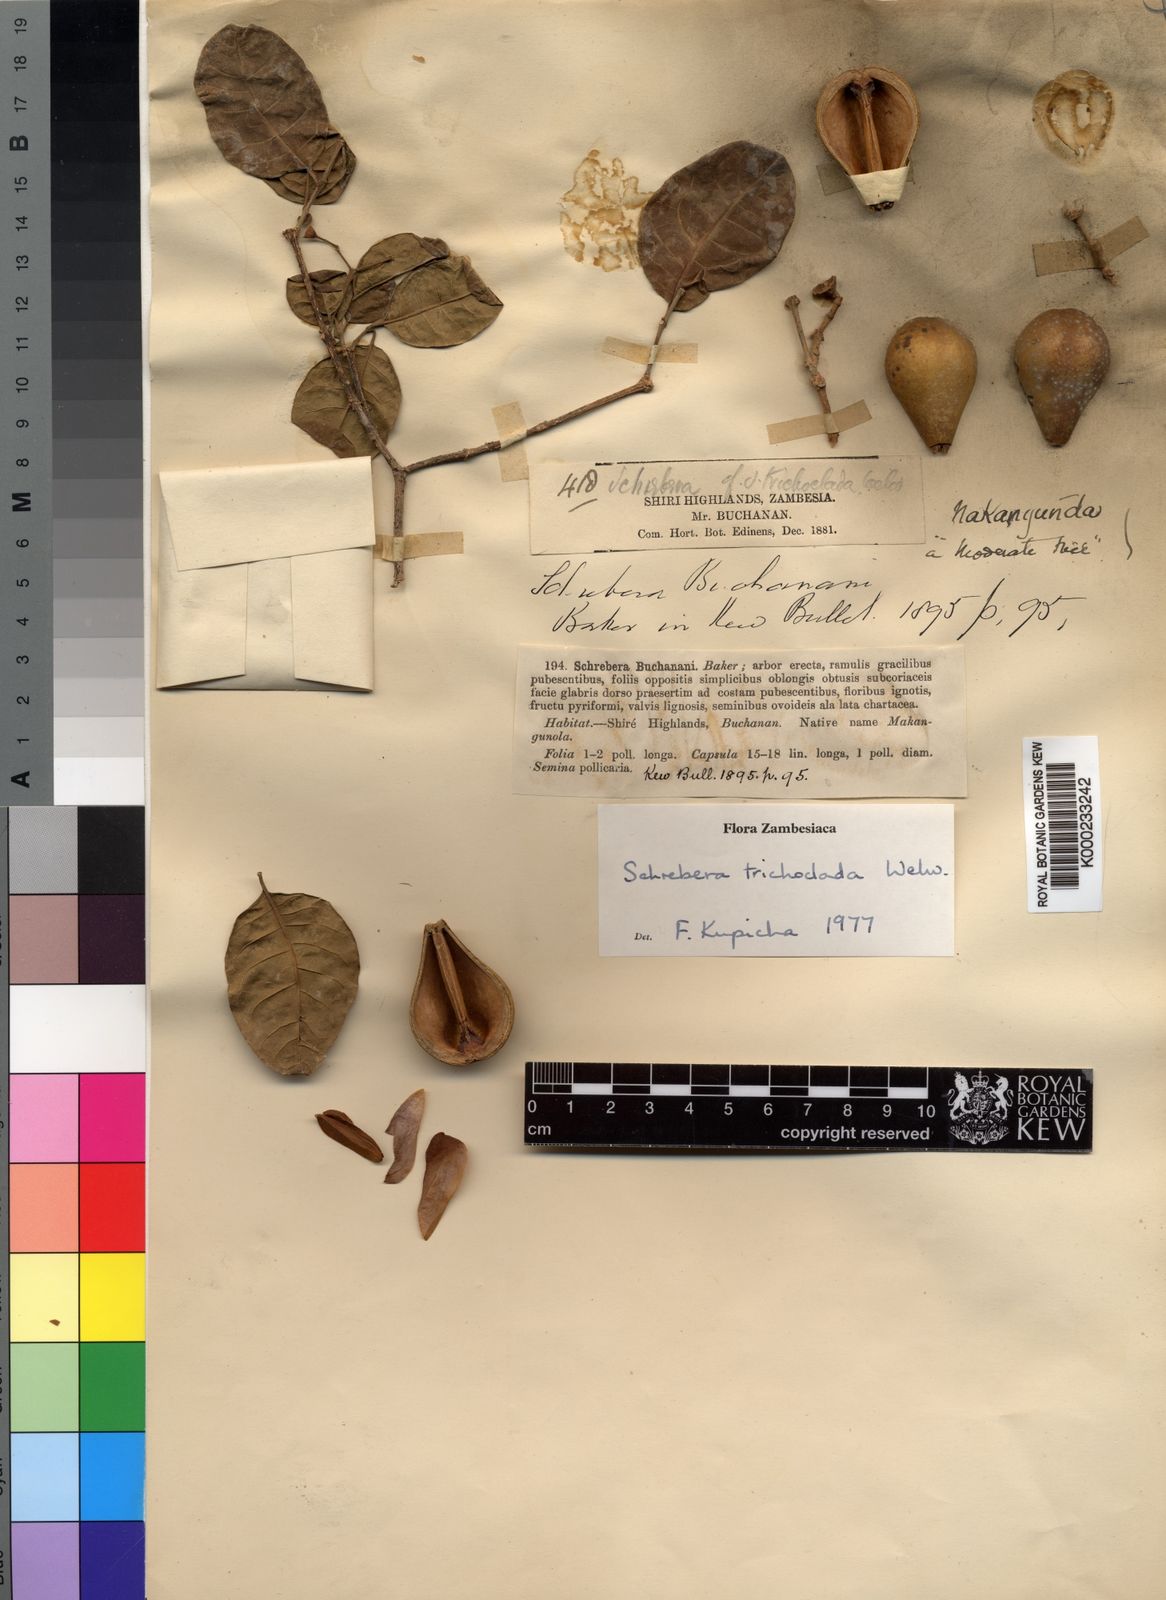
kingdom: Plantae
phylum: Tracheophyta
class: Magnoliopsida
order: Lamiales
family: Oleaceae
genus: Schrebera
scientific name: Schrebera trichoclada
